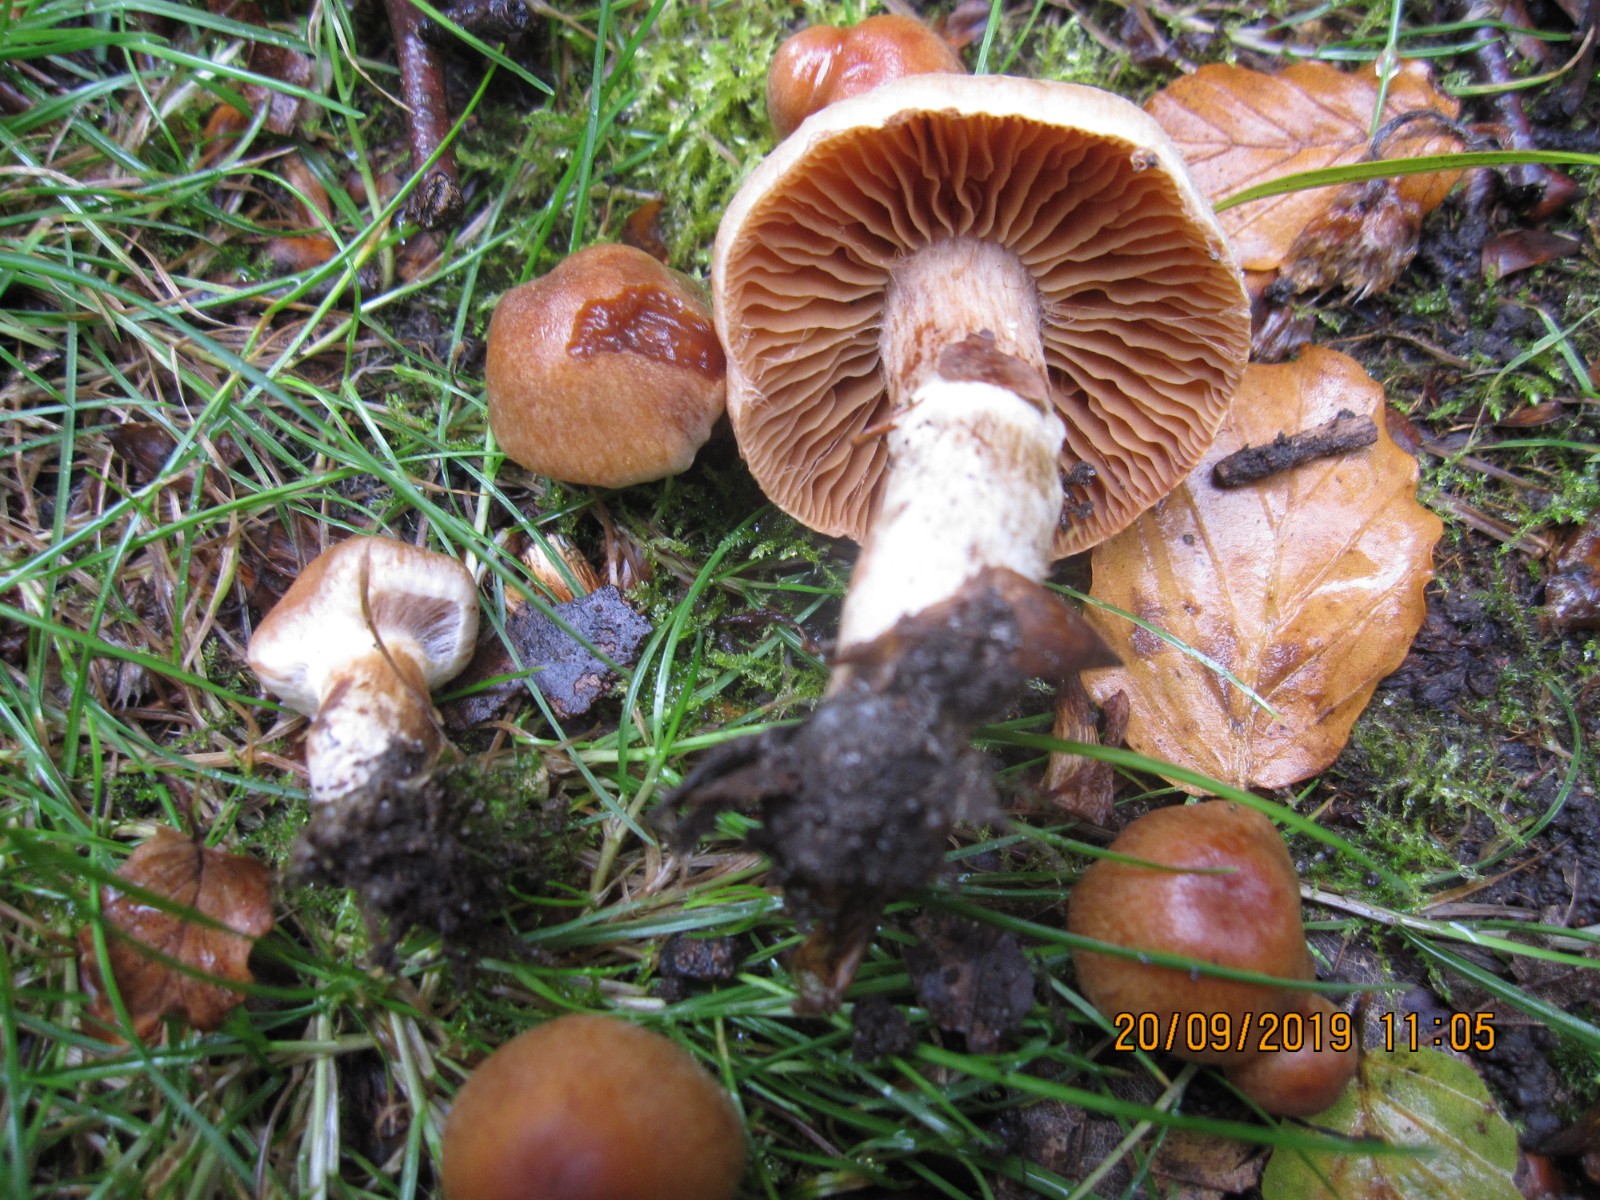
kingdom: Fungi
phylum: Basidiomycota
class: Agaricomycetes
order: Agaricales
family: Cortinariaceae
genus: Cortinarius
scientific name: Cortinarius hinnuleus
